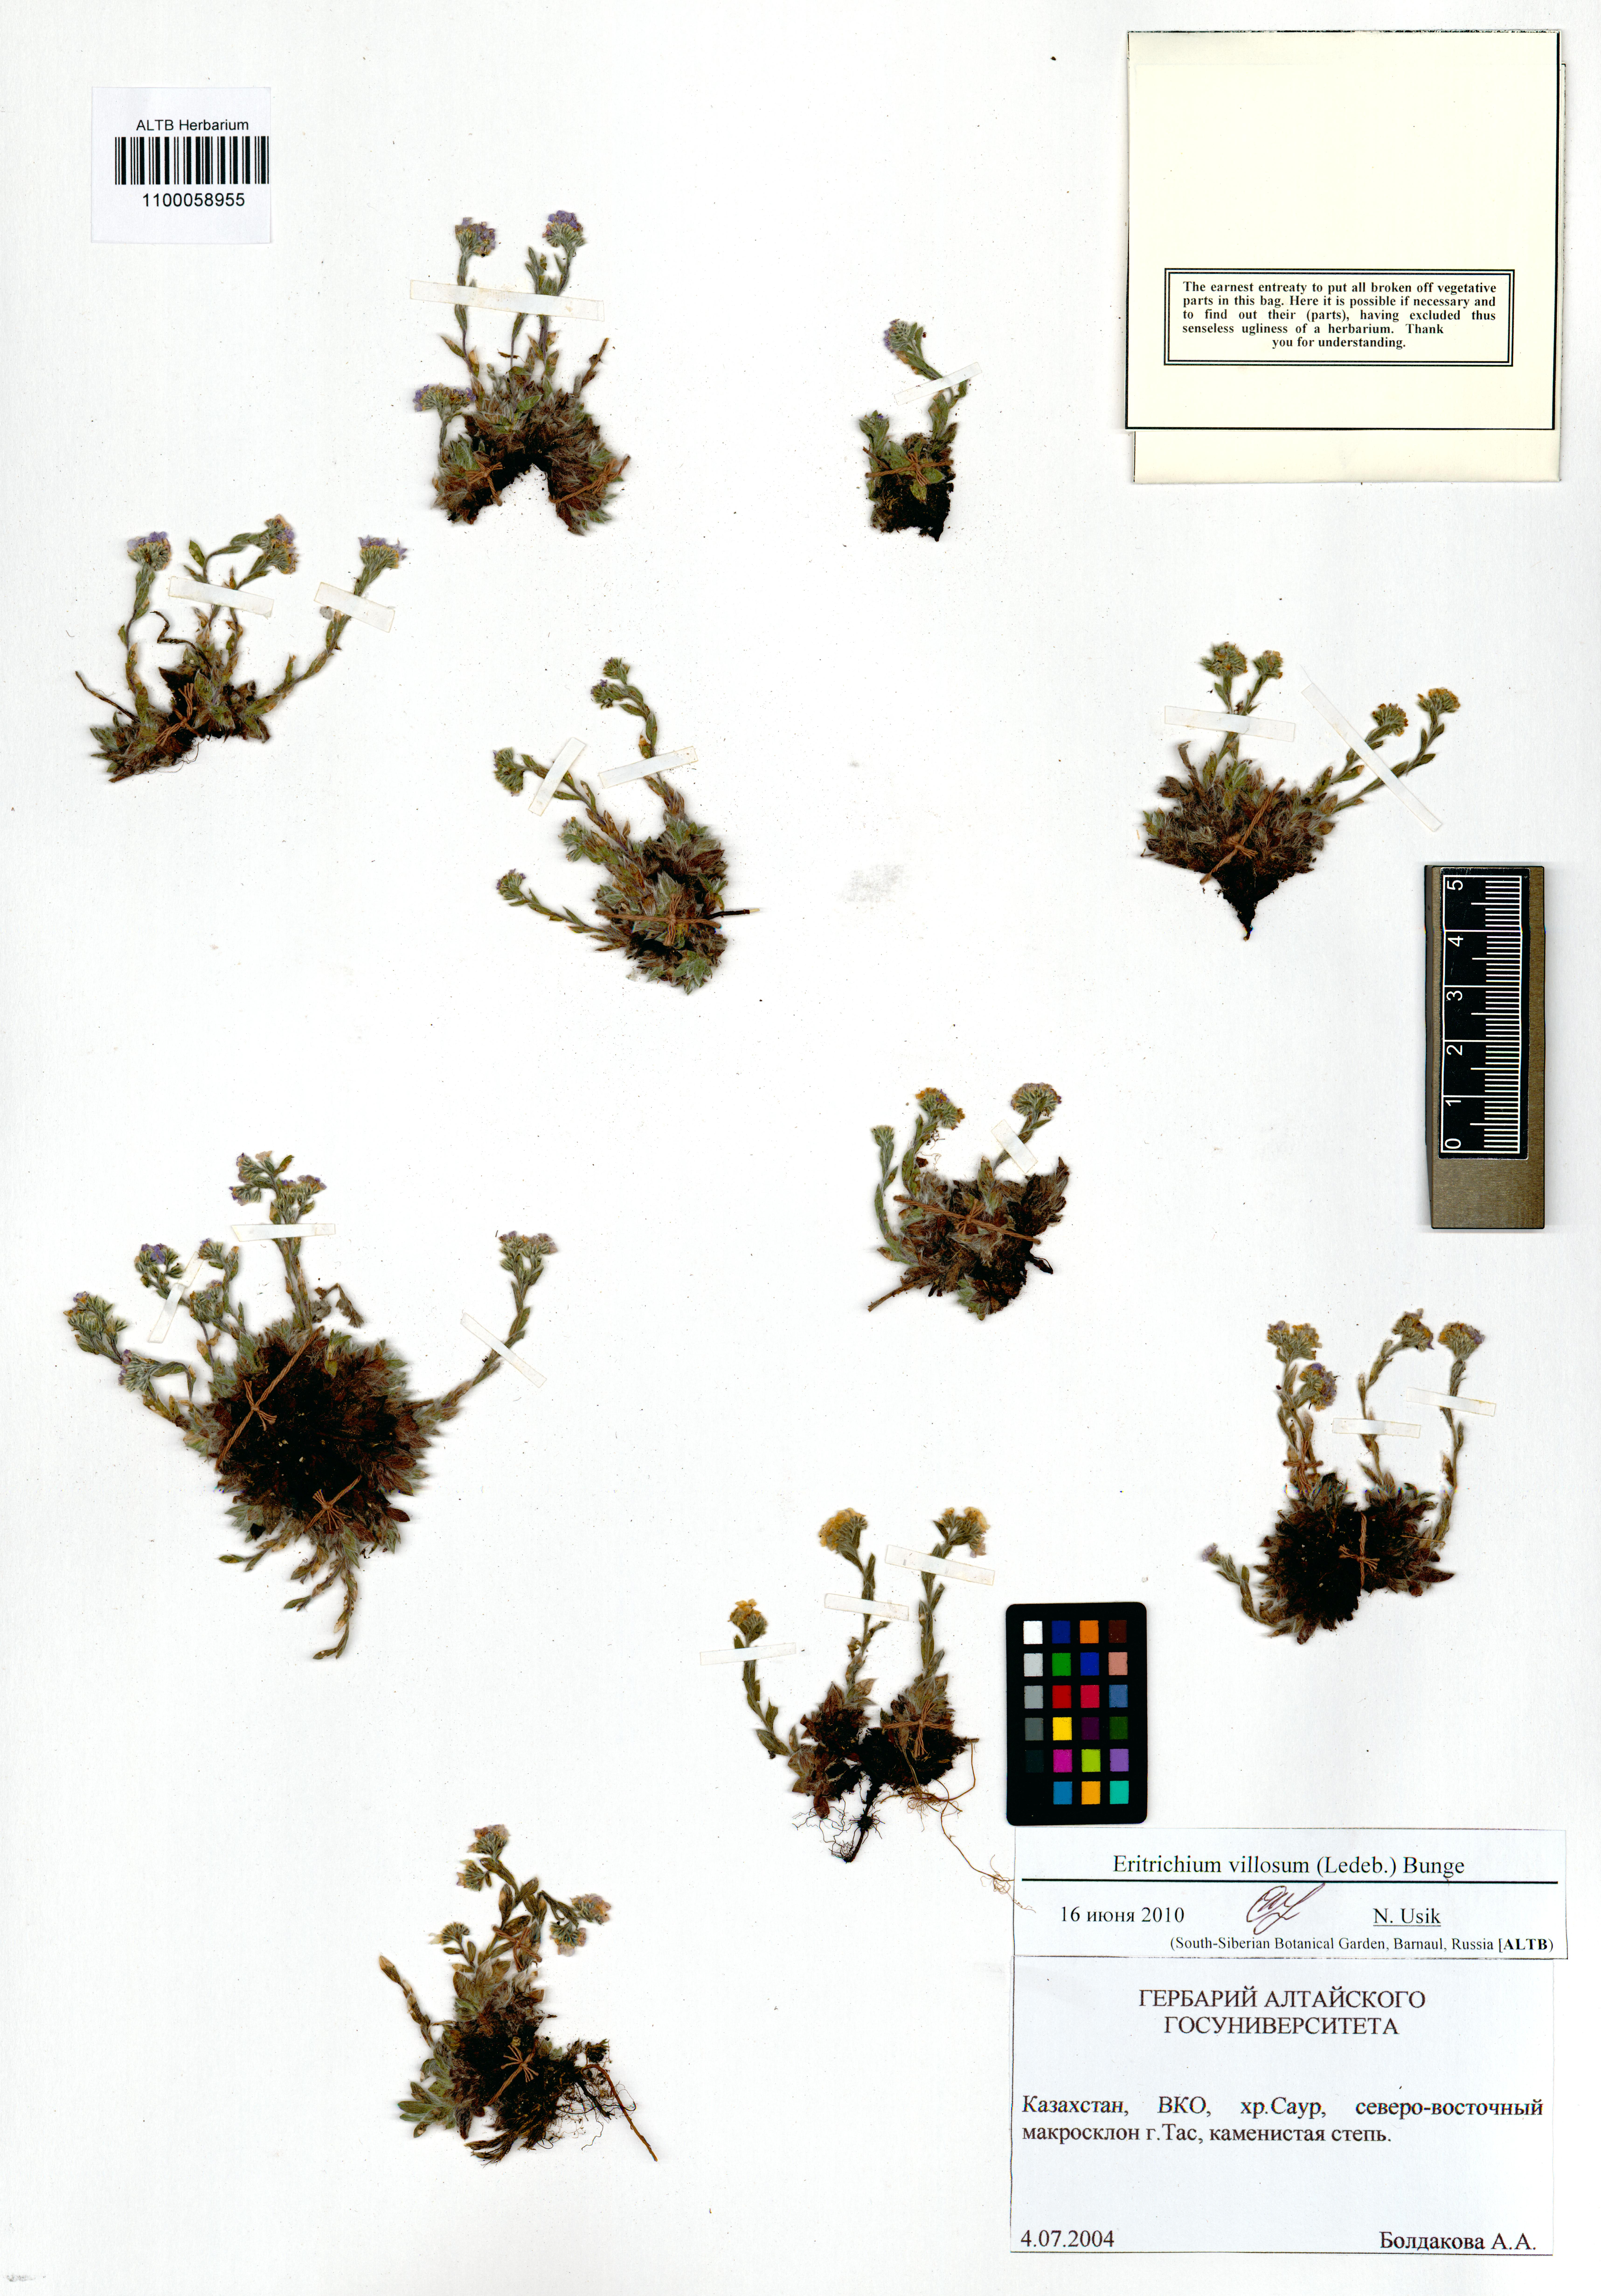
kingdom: Plantae
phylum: Tracheophyta
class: Magnoliopsida
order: Boraginales
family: Boraginaceae
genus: Eritrichium
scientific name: Eritrichium villosum
